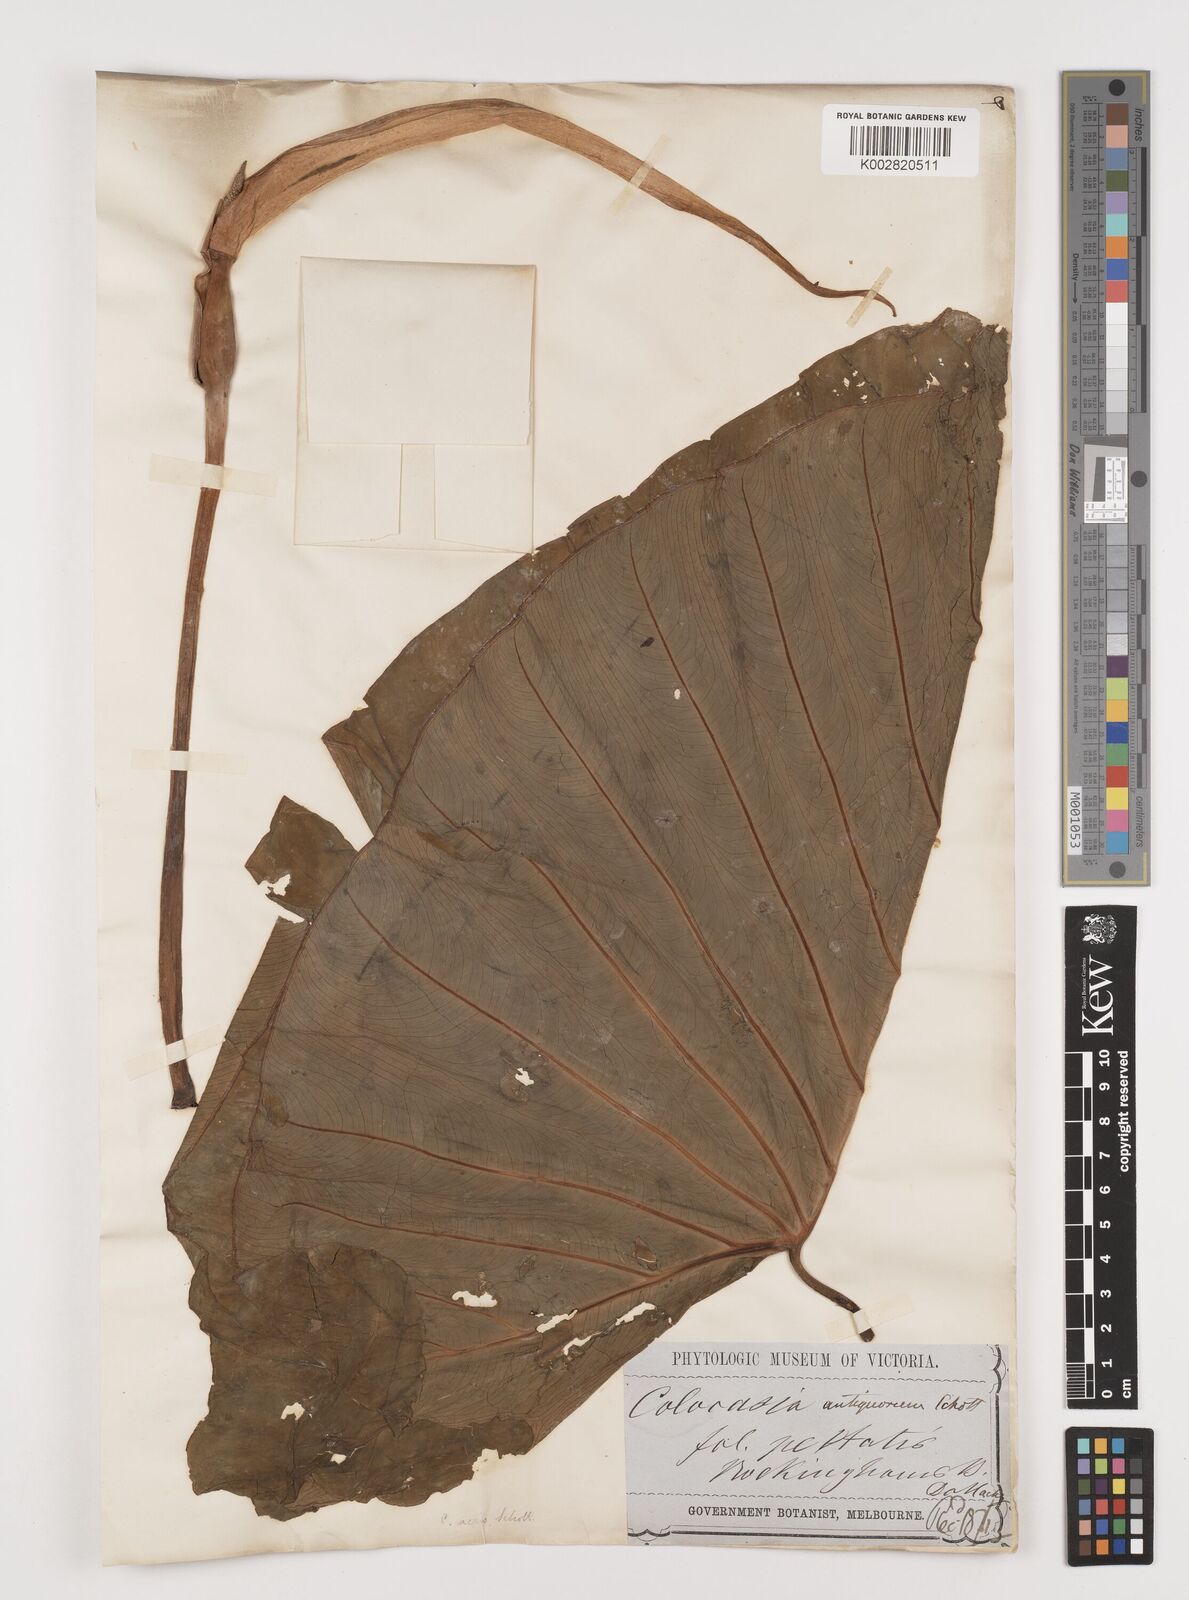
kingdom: Plantae
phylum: Tracheophyta
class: Liliopsida
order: Alismatales
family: Araceae
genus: Colocasia
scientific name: Colocasia esculenta
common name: Taro
